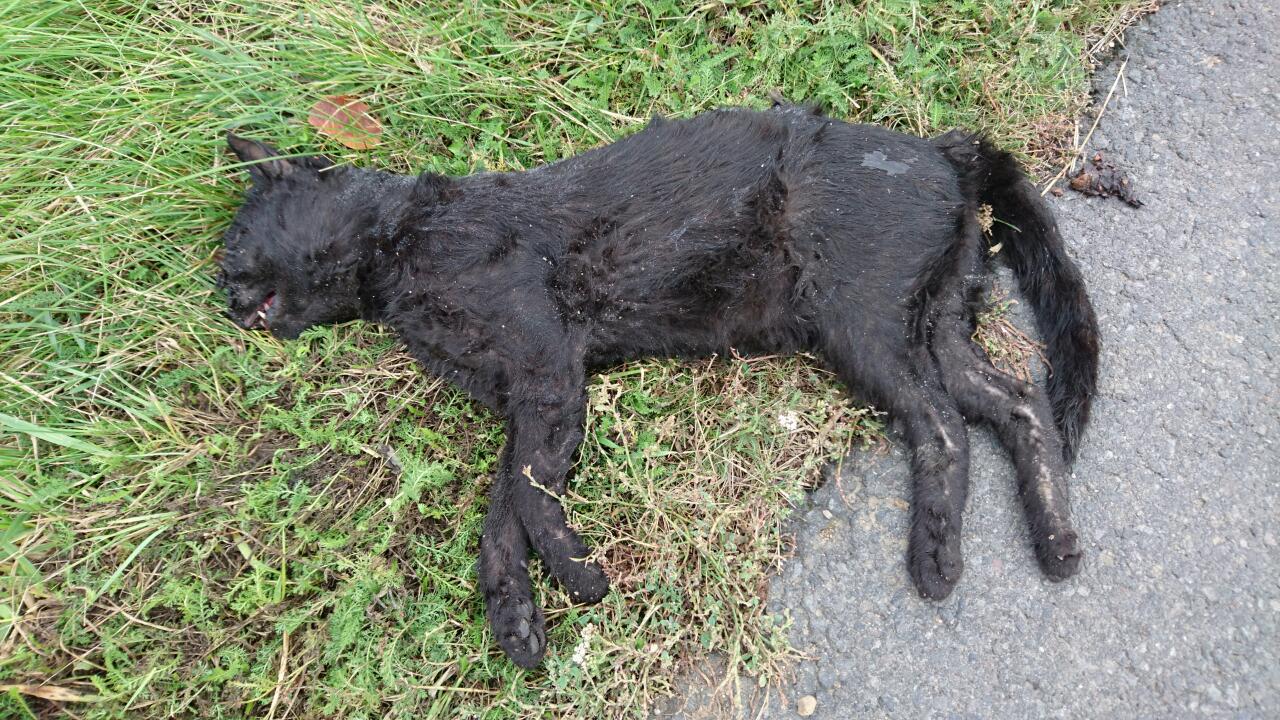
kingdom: Animalia
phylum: Chordata
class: Mammalia
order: Carnivora
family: Felidae
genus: Felis
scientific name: Felis catus
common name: Domestic cat
